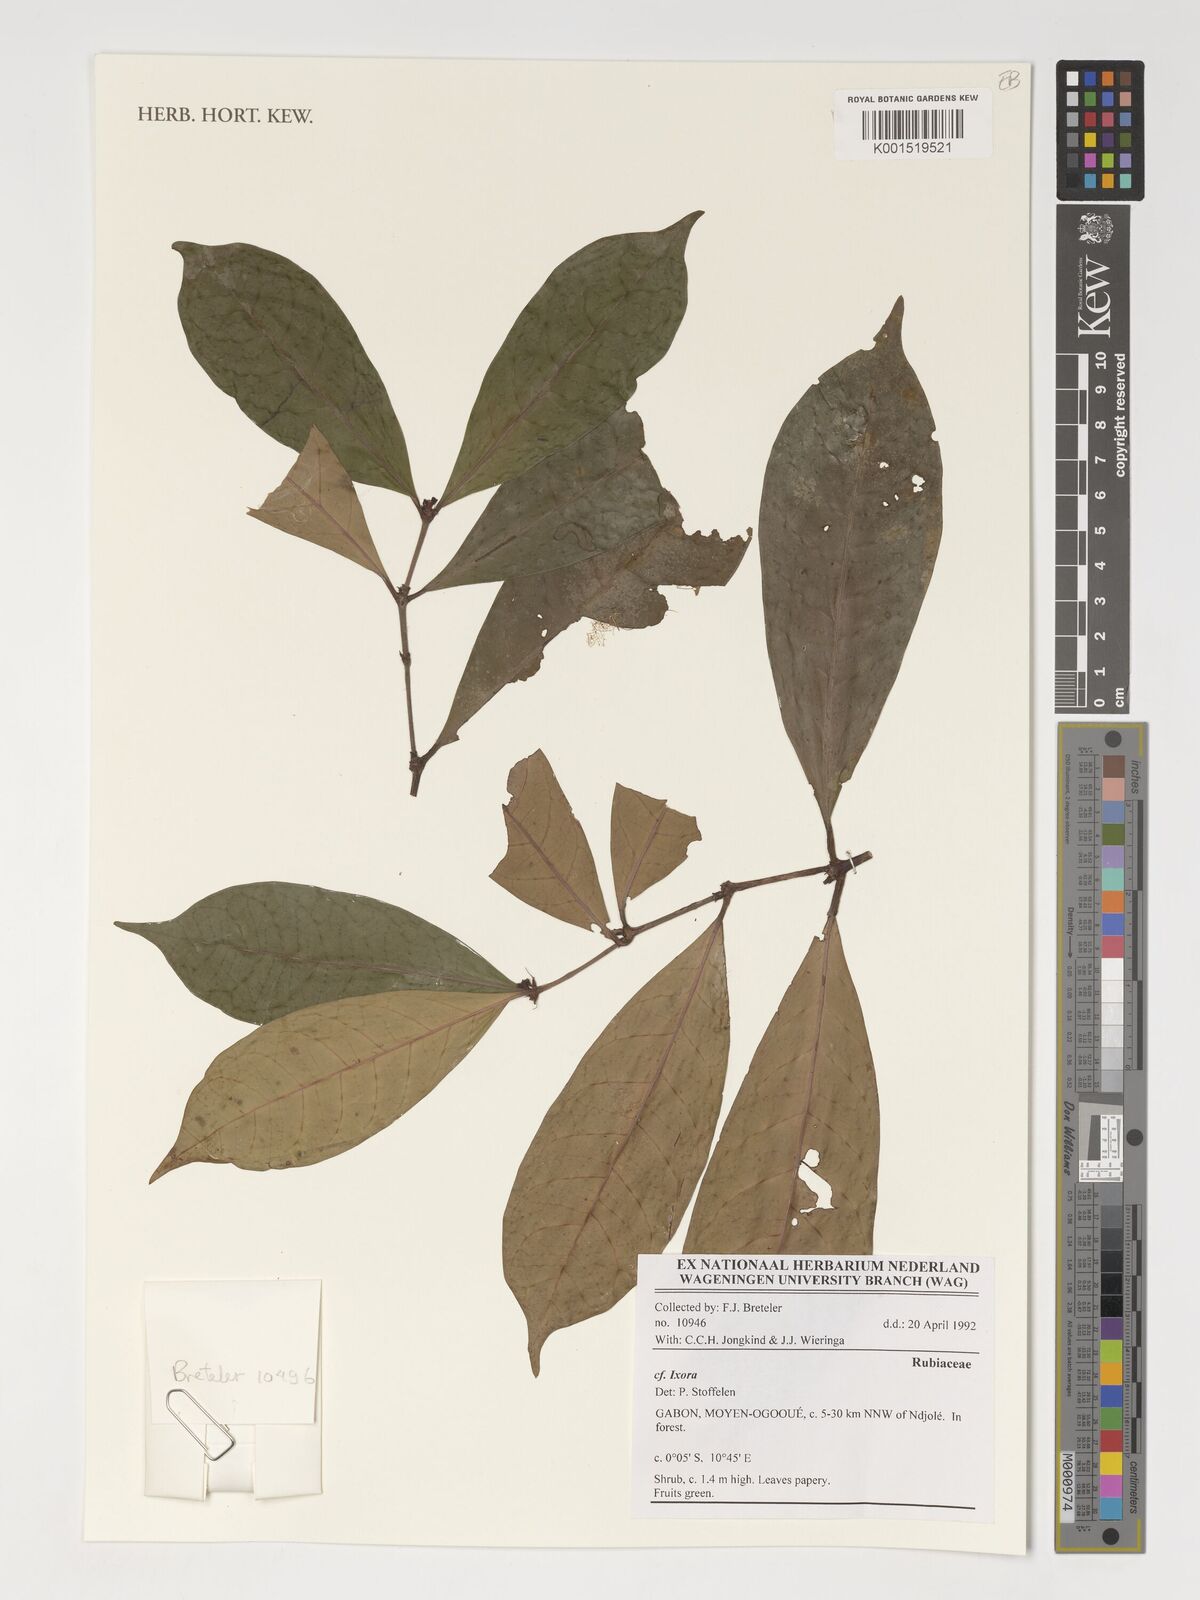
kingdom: Plantae
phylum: Tracheophyta
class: Magnoliopsida
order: Gentianales
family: Rubiaceae
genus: Ixora
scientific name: Ixora
